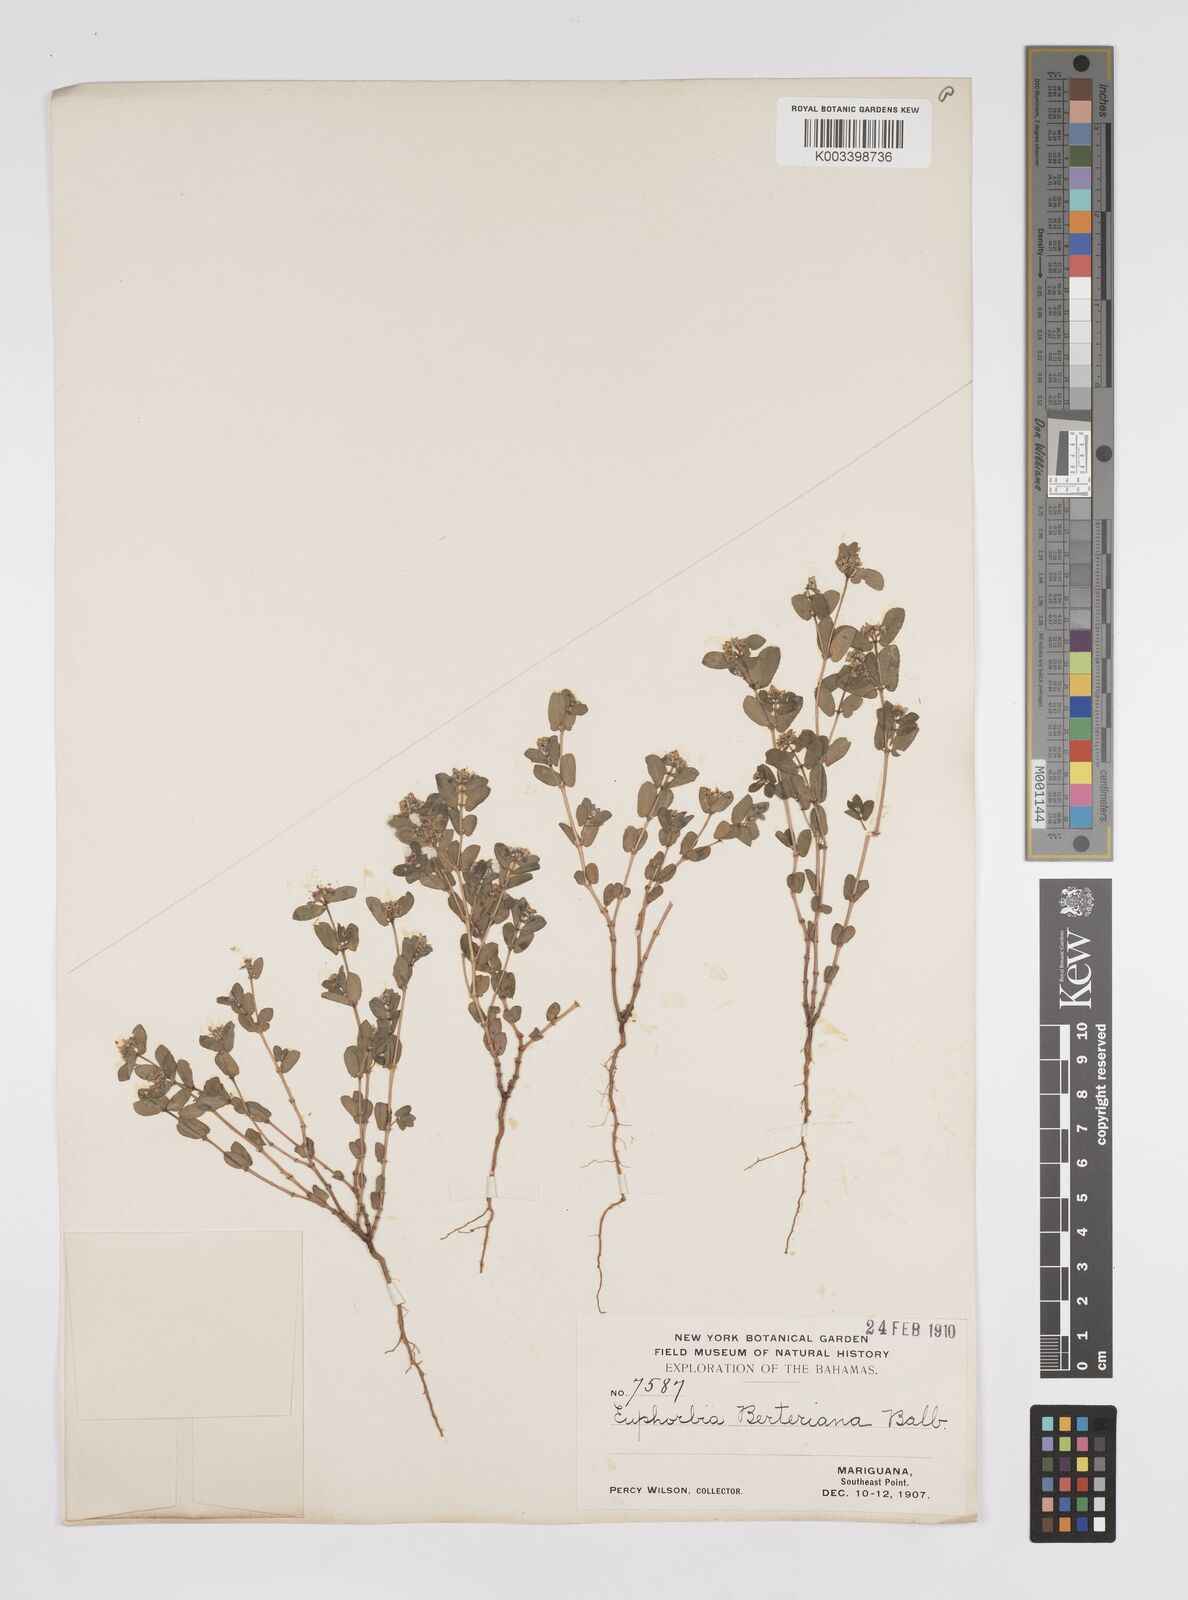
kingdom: Plantae
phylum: Tracheophyta
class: Magnoliopsida
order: Malpighiales
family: Euphorbiaceae
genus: Euphorbia
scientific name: Euphorbia berteroana
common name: Bertero's sandmat
